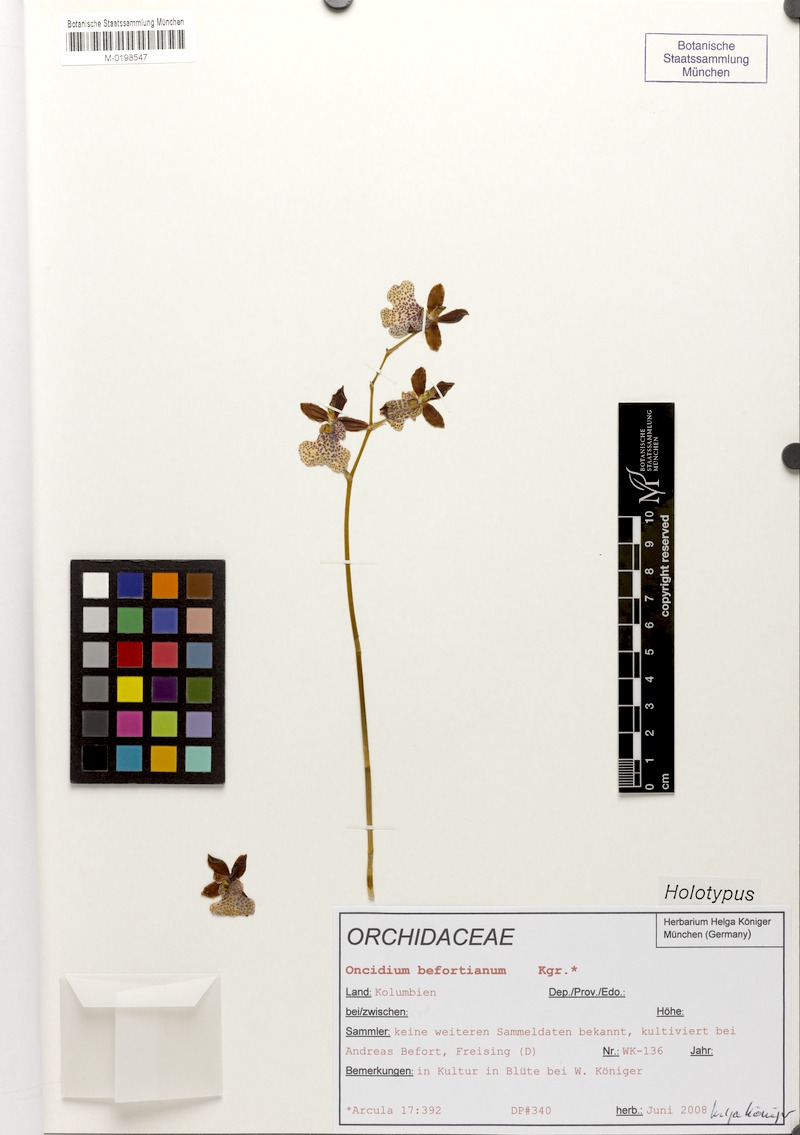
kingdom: Plantae
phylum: Tracheophyta
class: Liliopsida
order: Asparagales
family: Orchidaceae
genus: Oncidium
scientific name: Oncidium befortianum
